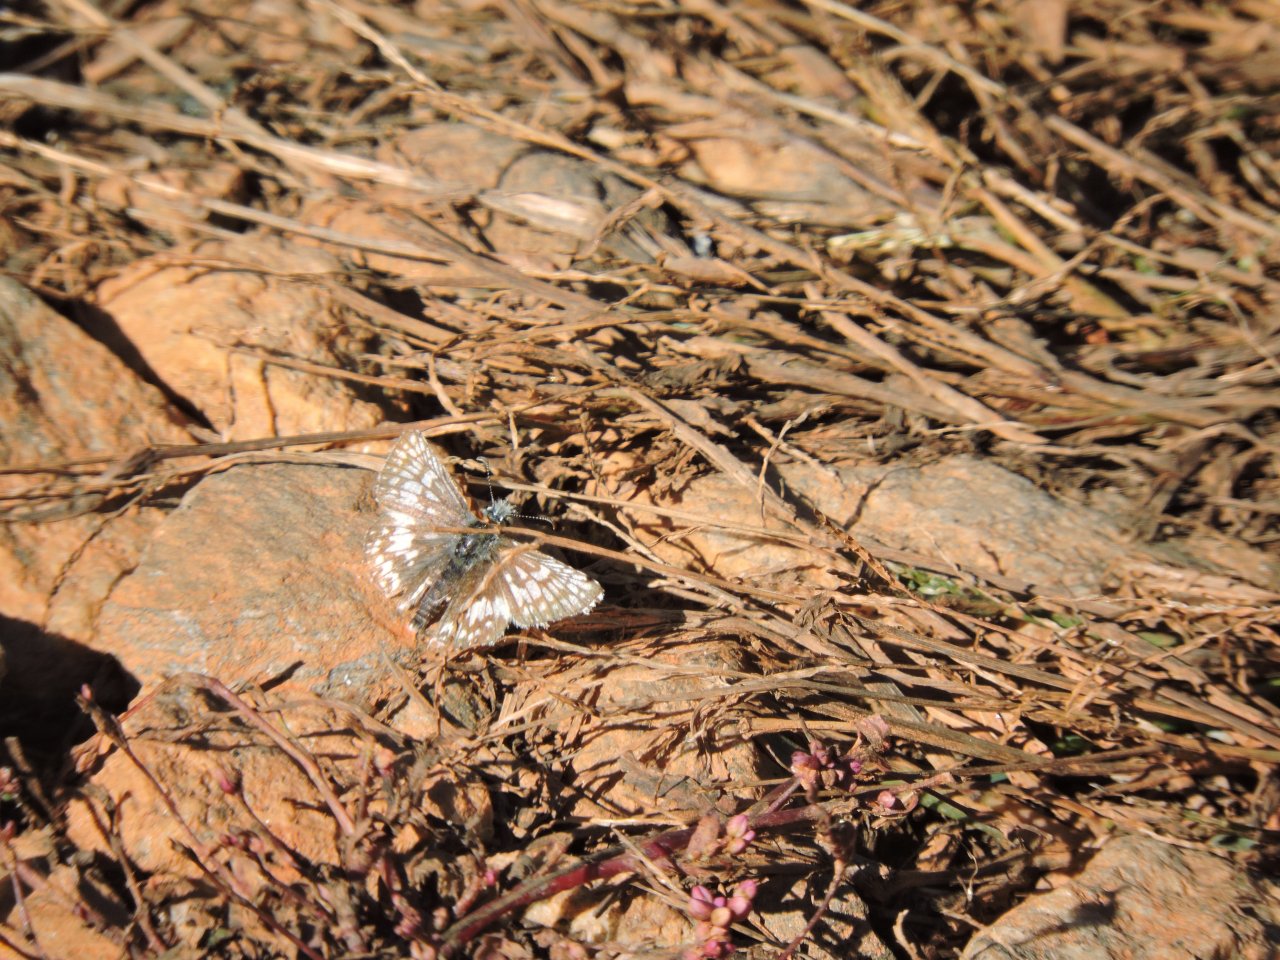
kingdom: Animalia
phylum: Arthropoda
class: Insecta
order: Lepidoptera
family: Hesperiidae
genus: Pyrgus
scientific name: Pyrgus
